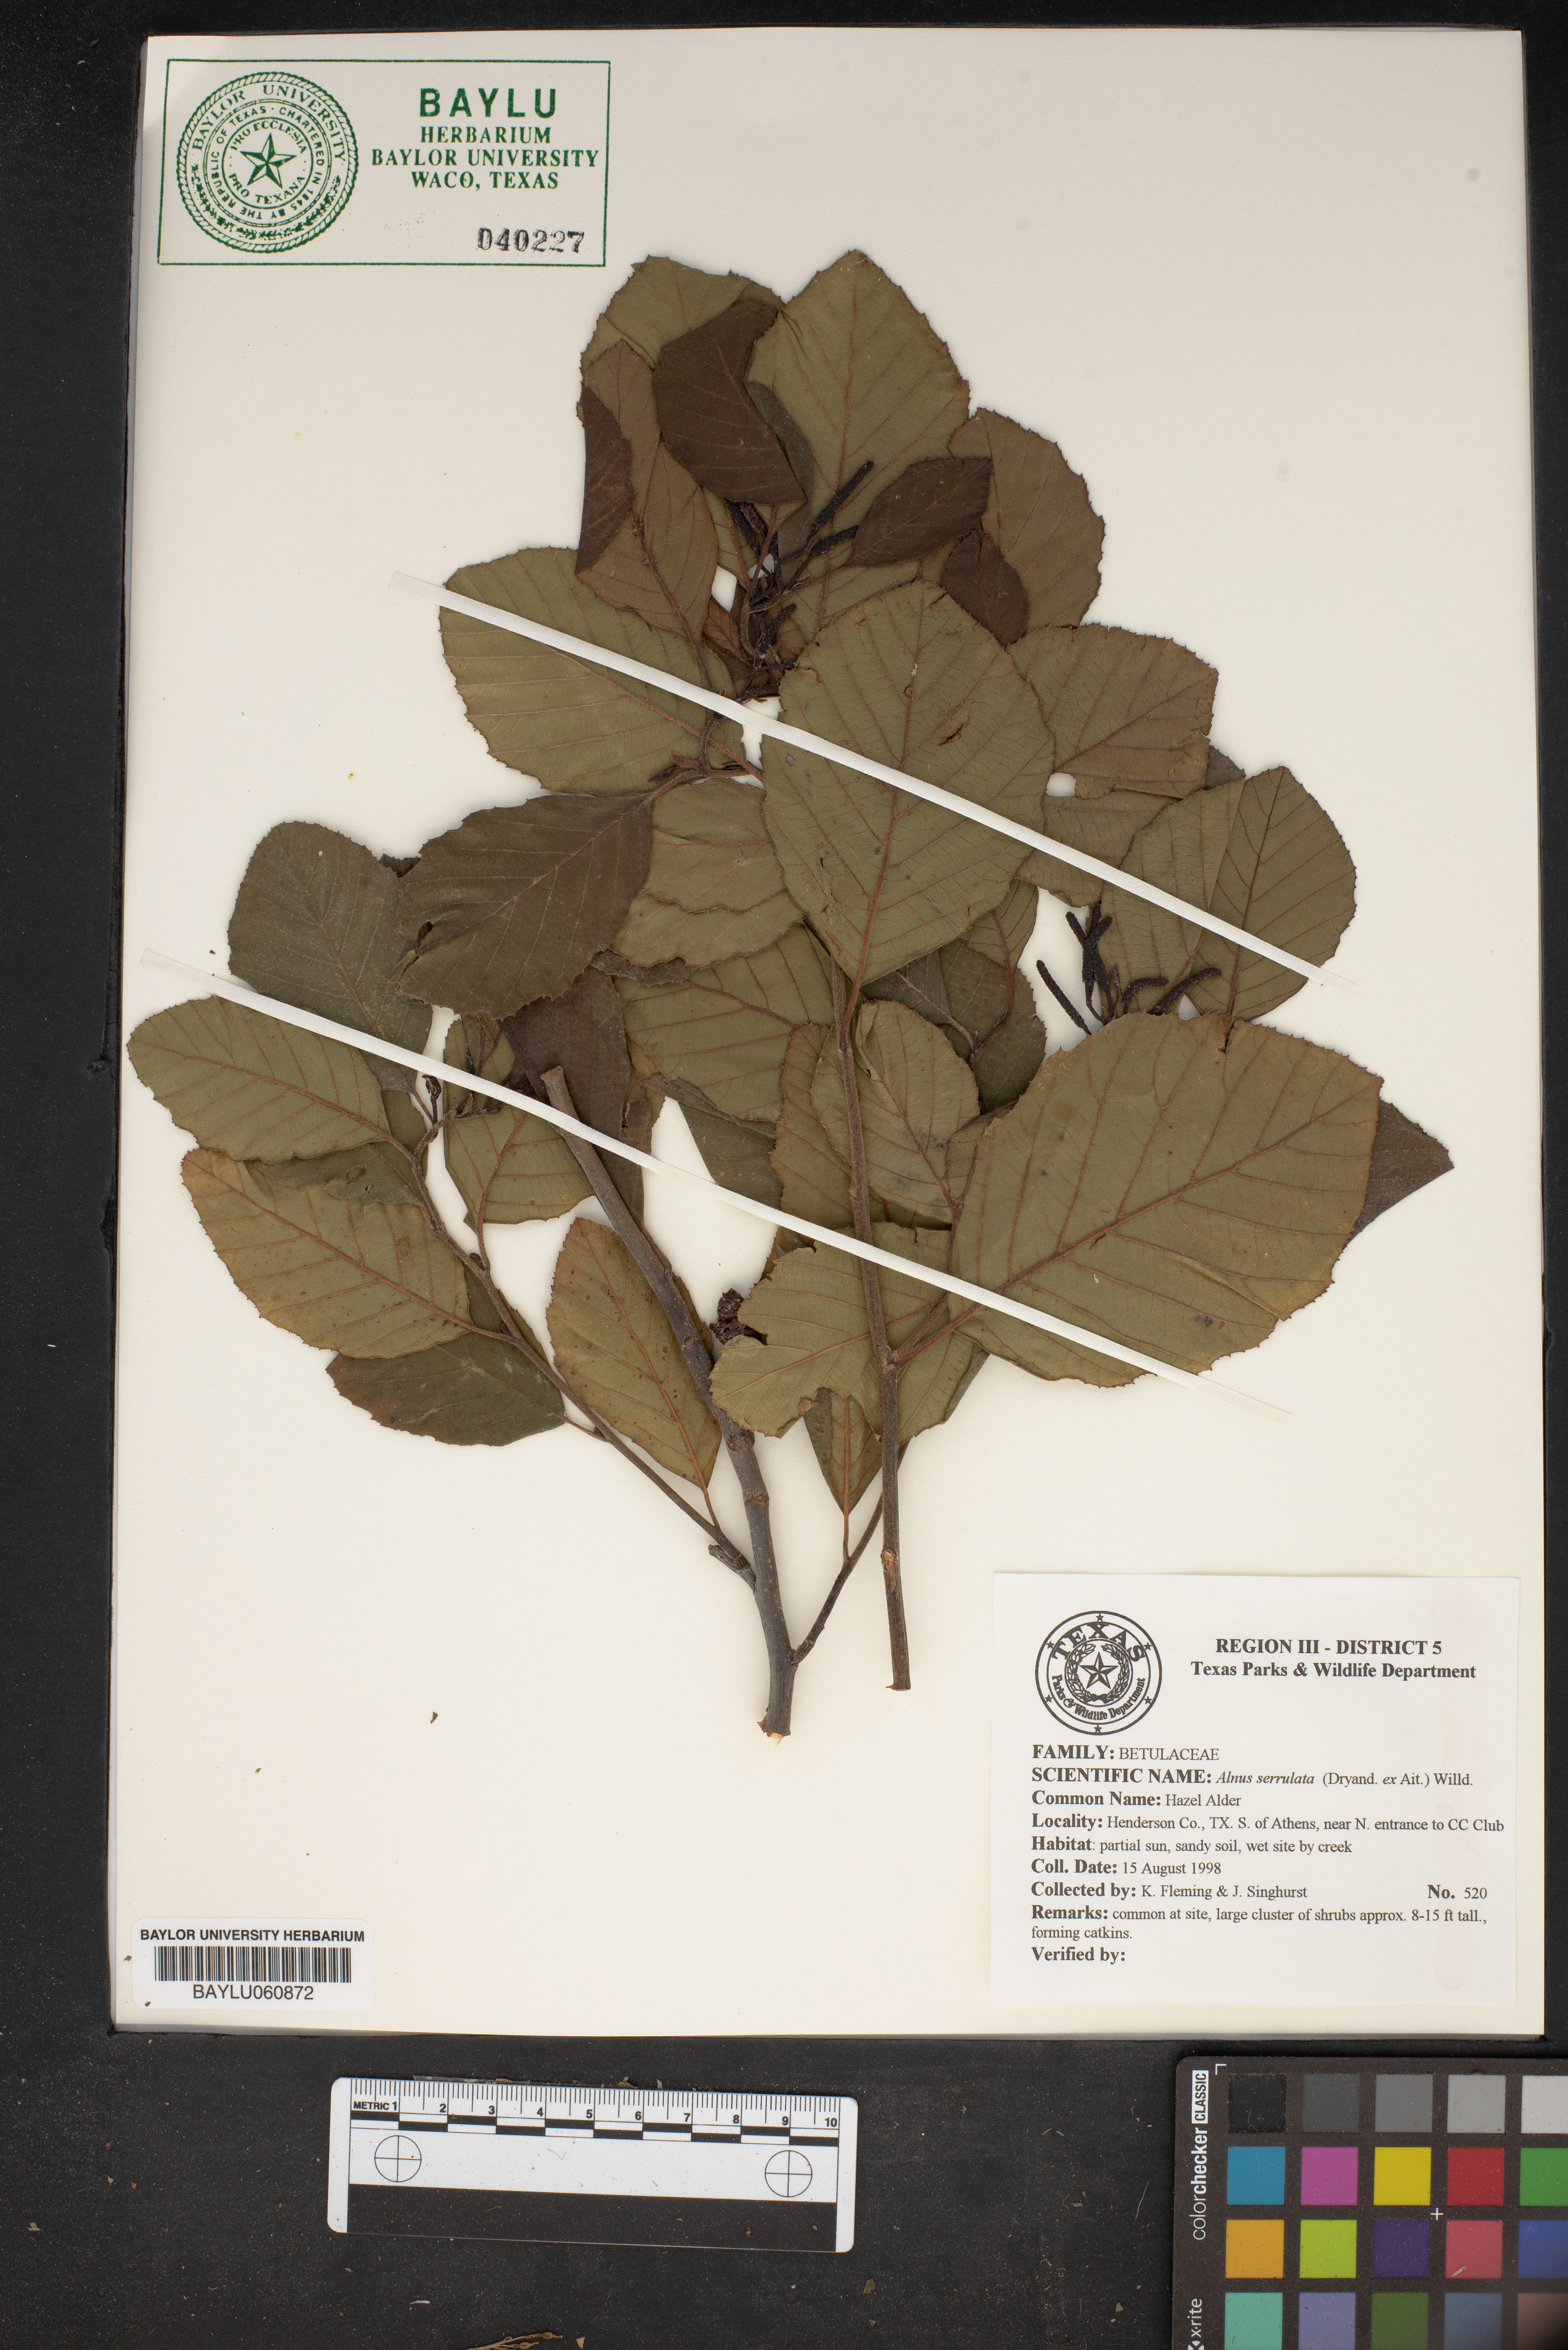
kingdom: Plantae
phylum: Tracheophyta
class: Magnoliopsida
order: Fagales
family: Betulaceae
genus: Alnus
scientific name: Alnus serrulata
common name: Hazel alder
